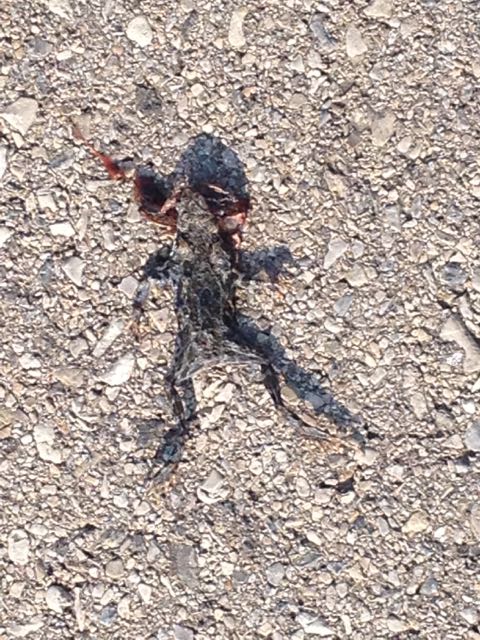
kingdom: Animalia
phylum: Chordata
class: Amphibia
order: Anura
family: Bufonidae
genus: Bufotes
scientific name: Bufotes viridis
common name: European green toad
